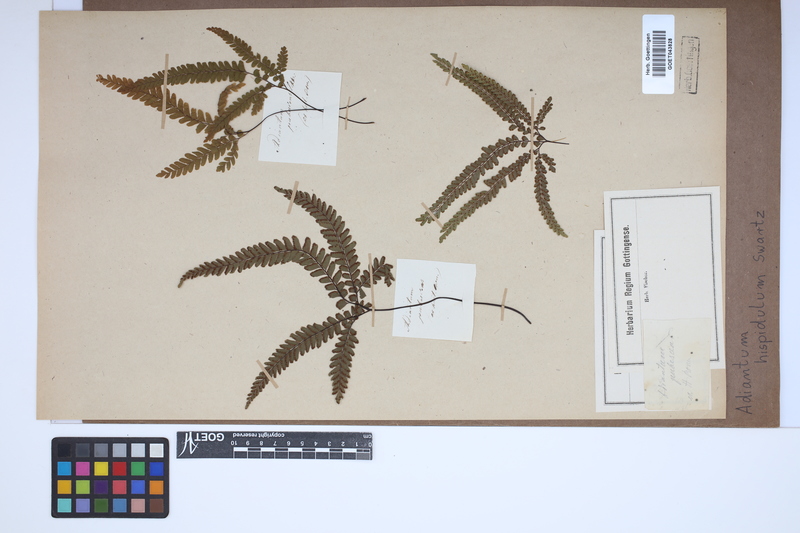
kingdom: Plantae
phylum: Tracheophyta
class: Polypodiopsida
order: Polypodiales
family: Pteridaceae
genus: Adiantum
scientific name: Adiantum hispidulum
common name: Rough maidenhair
